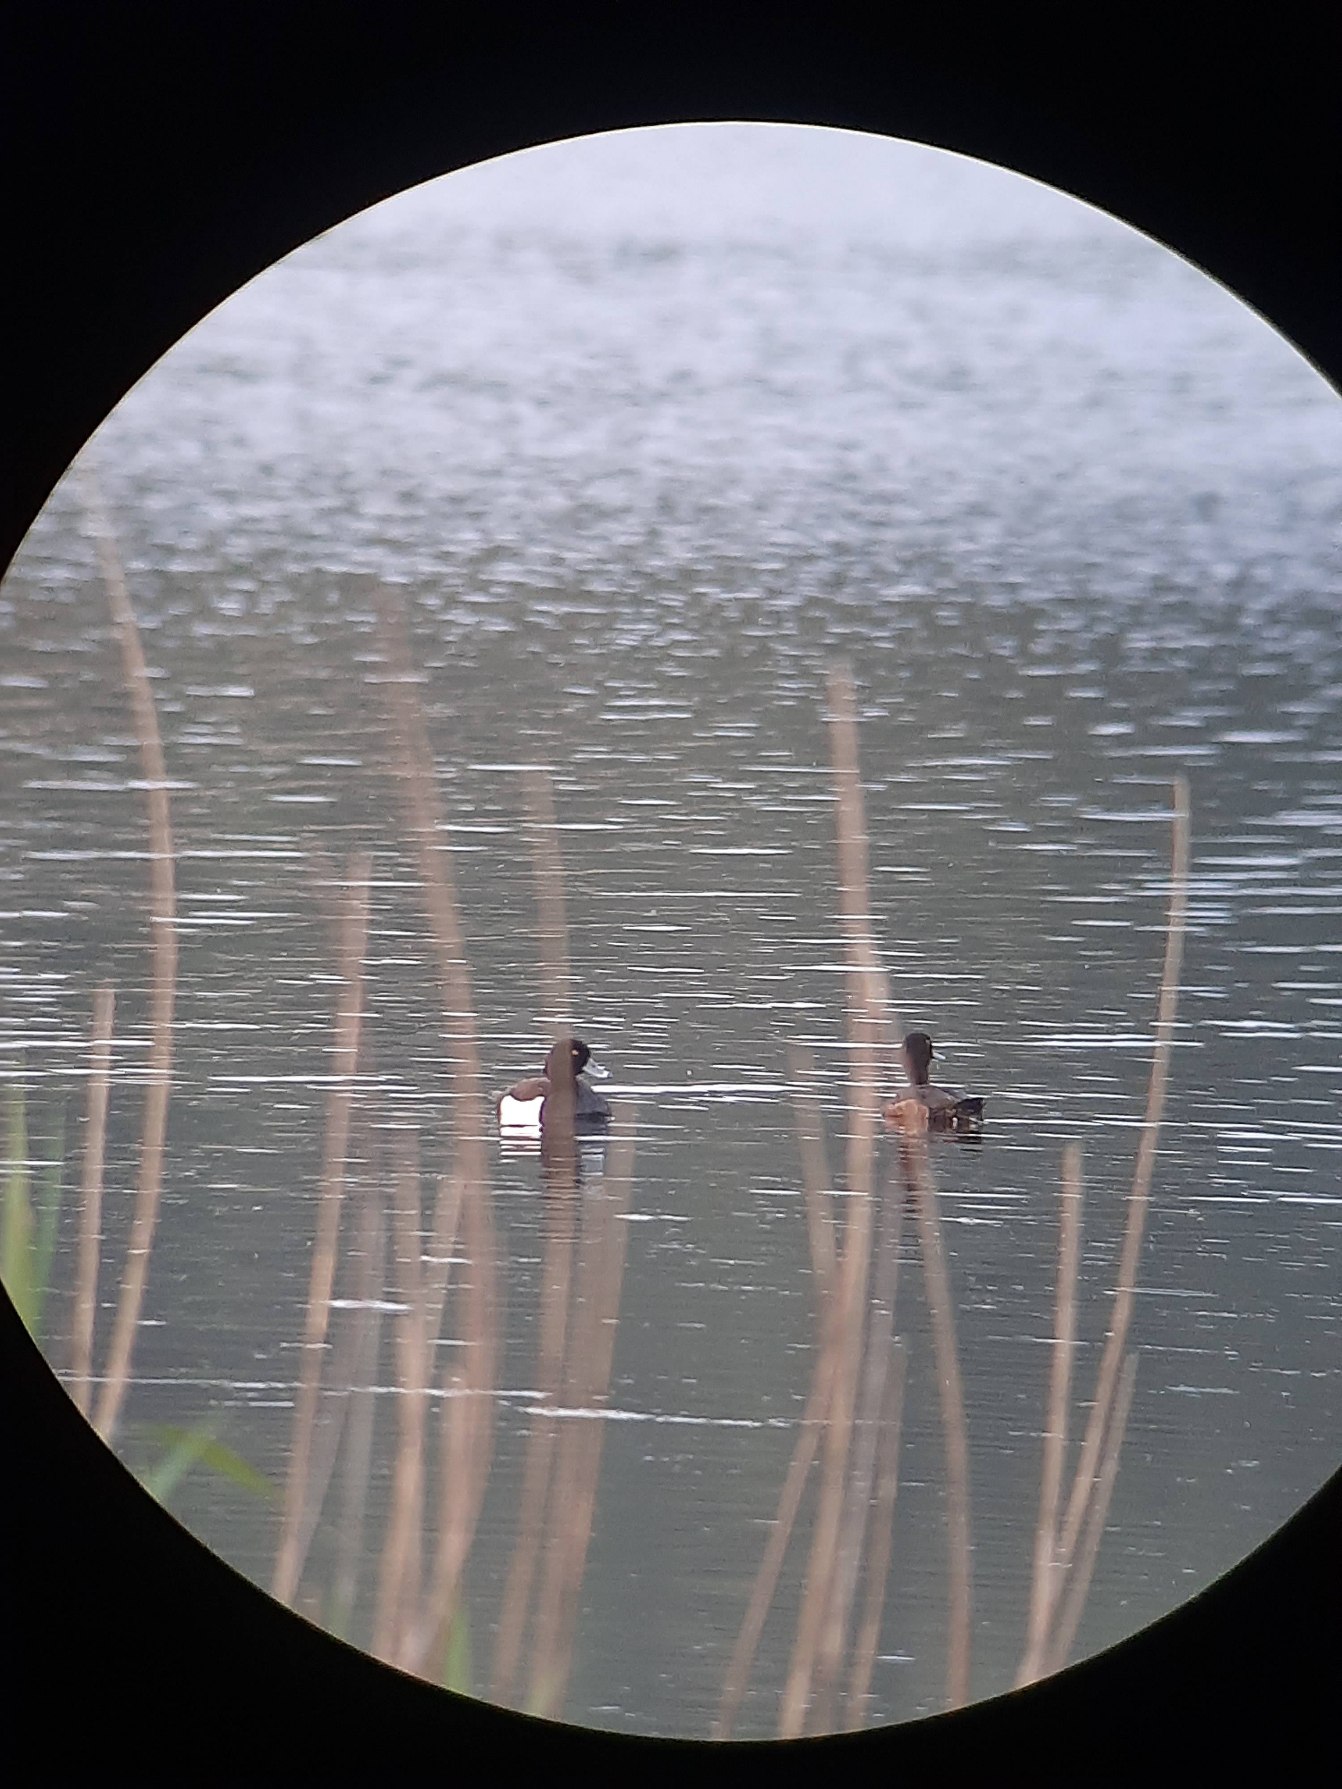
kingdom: Animalia
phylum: Chordata
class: Aves
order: Anseriformes
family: Anatidae
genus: Aythya
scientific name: Aythya fuligula
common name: Troldand
